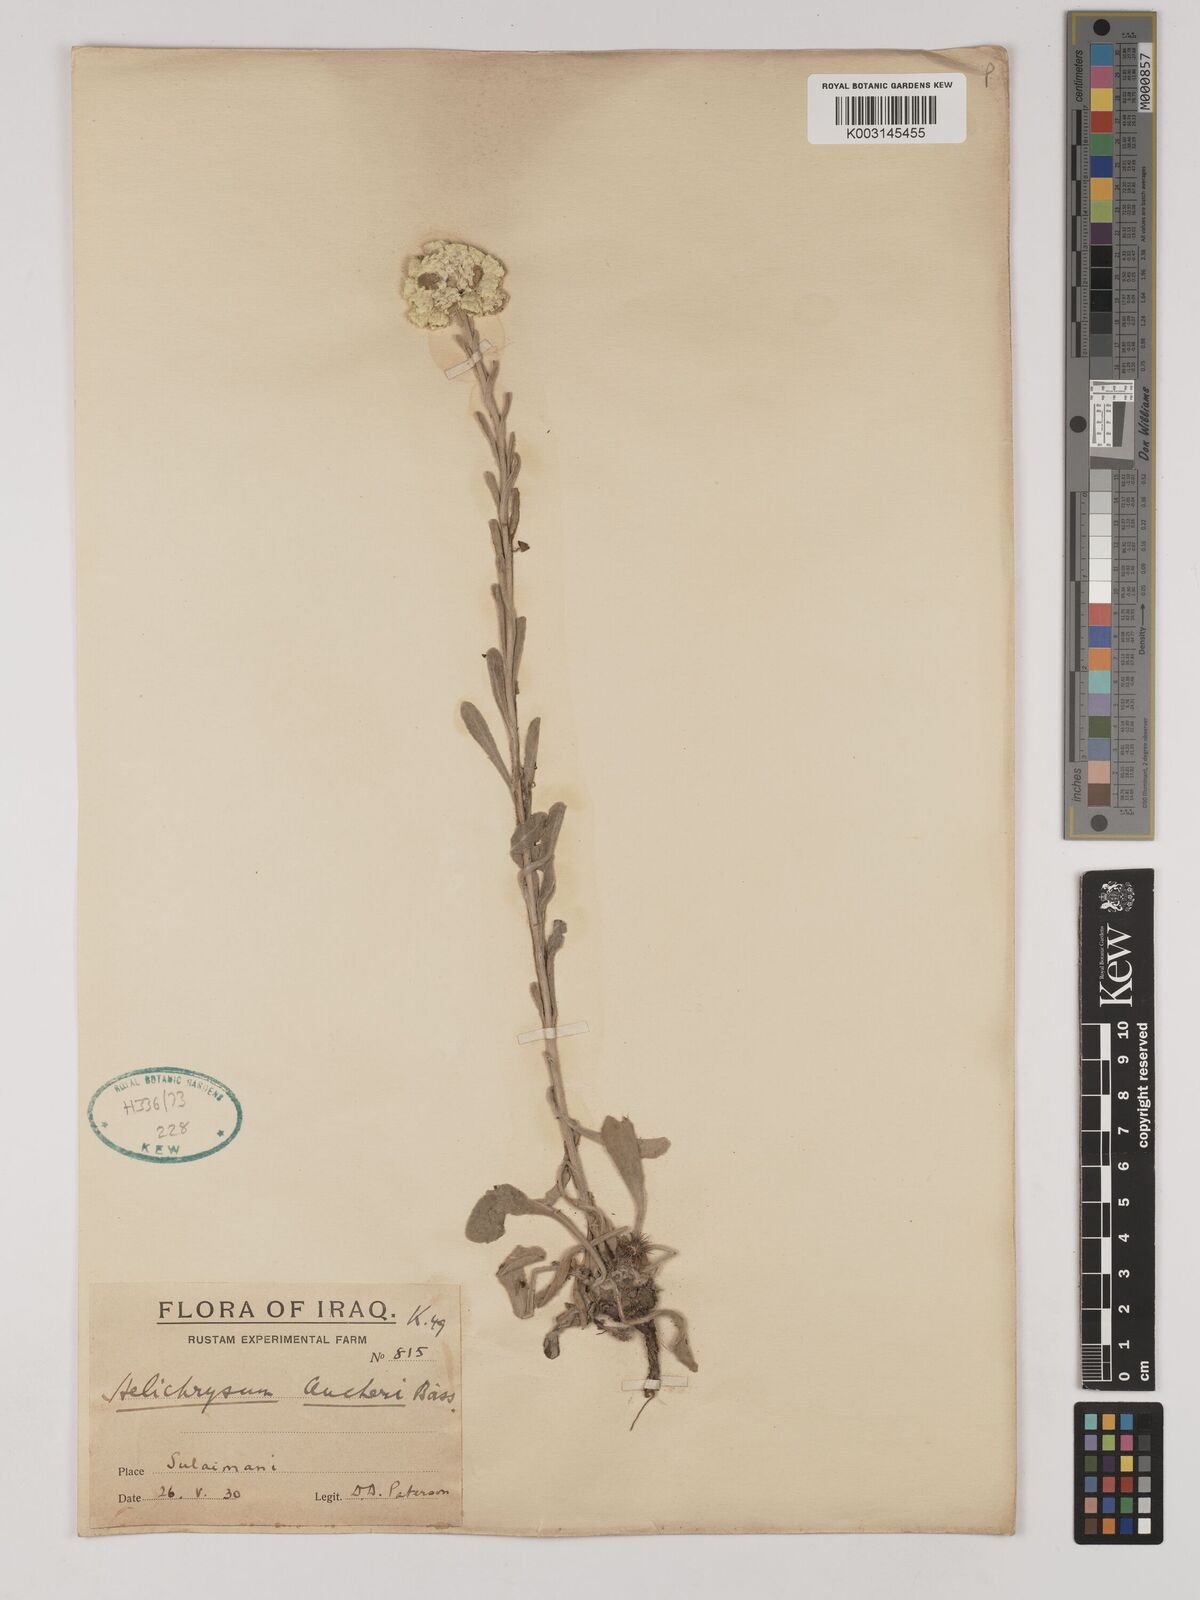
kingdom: Plantae
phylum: Tracheophyta
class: Magnoliopsida
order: Asterales
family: Asteraceae
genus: Helichrysum
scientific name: Helichrysum arenarium
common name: Strawflower
